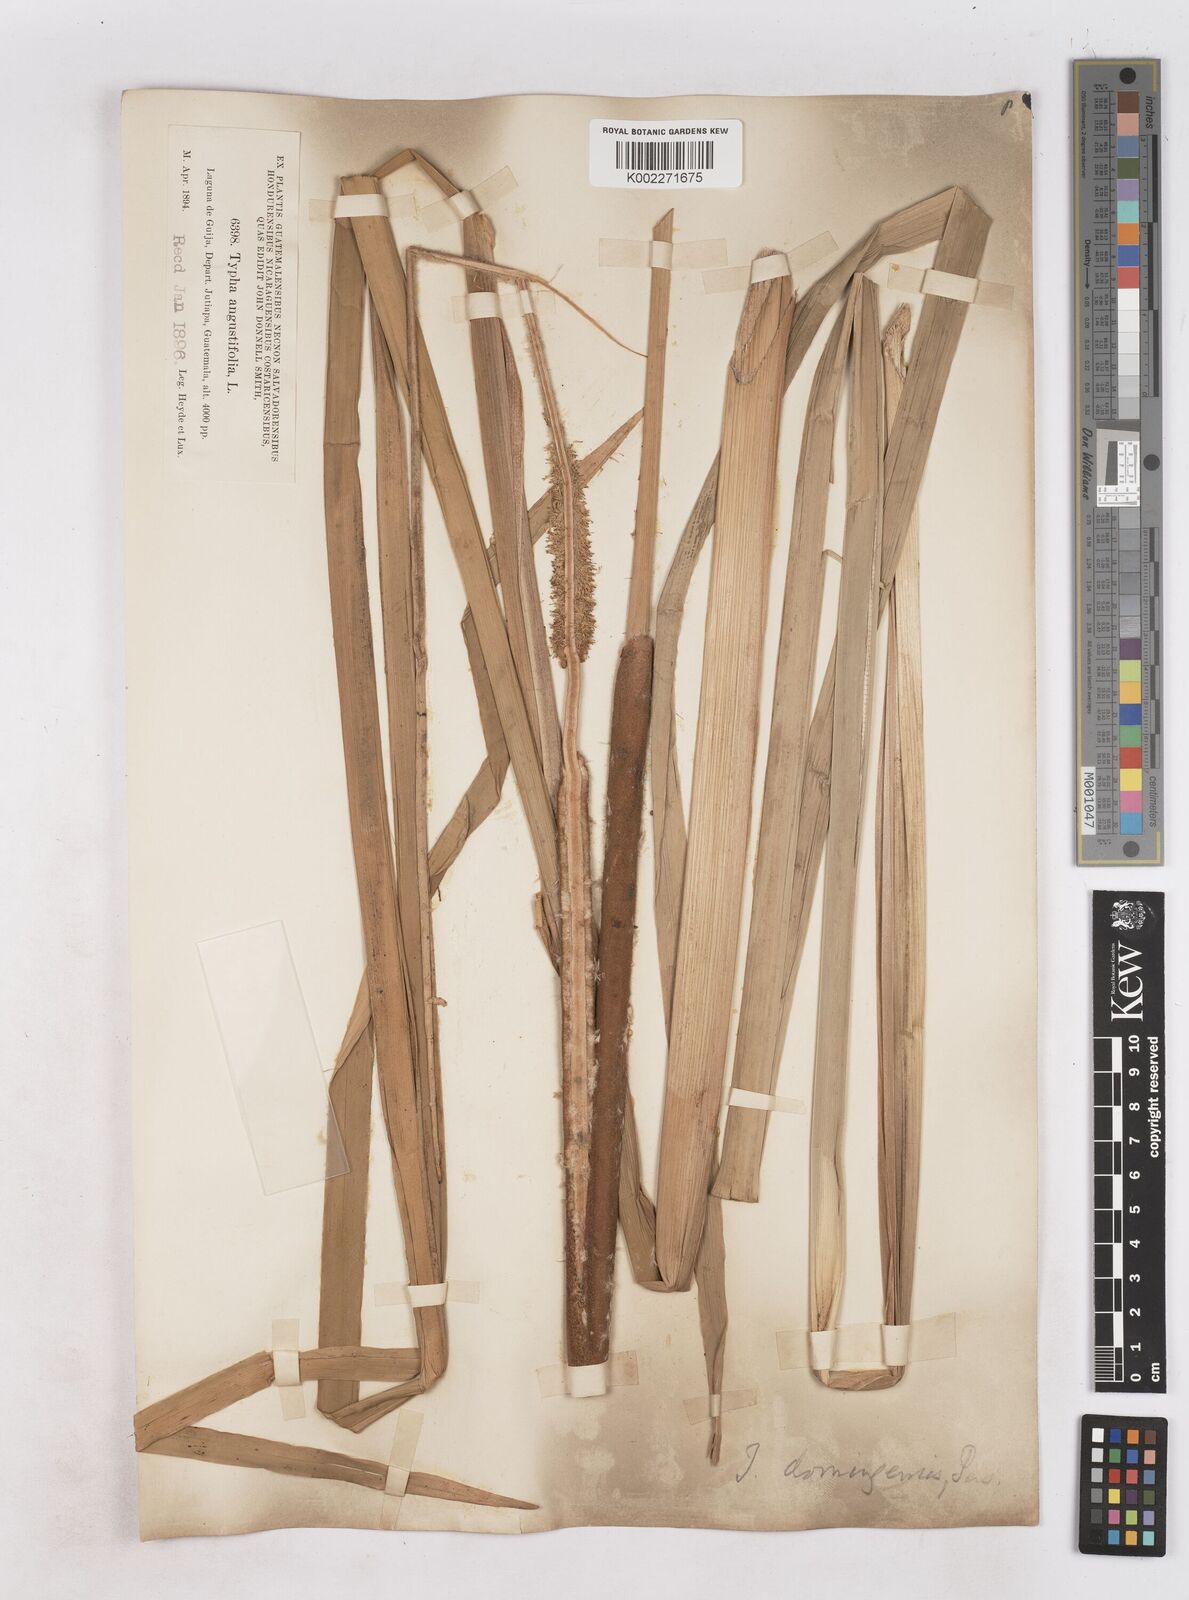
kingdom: Plantae
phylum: Tracheophyta
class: Liliopsida
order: Poales
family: Typhaceae
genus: Typha
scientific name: Typha domingensis
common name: Southern cattail
